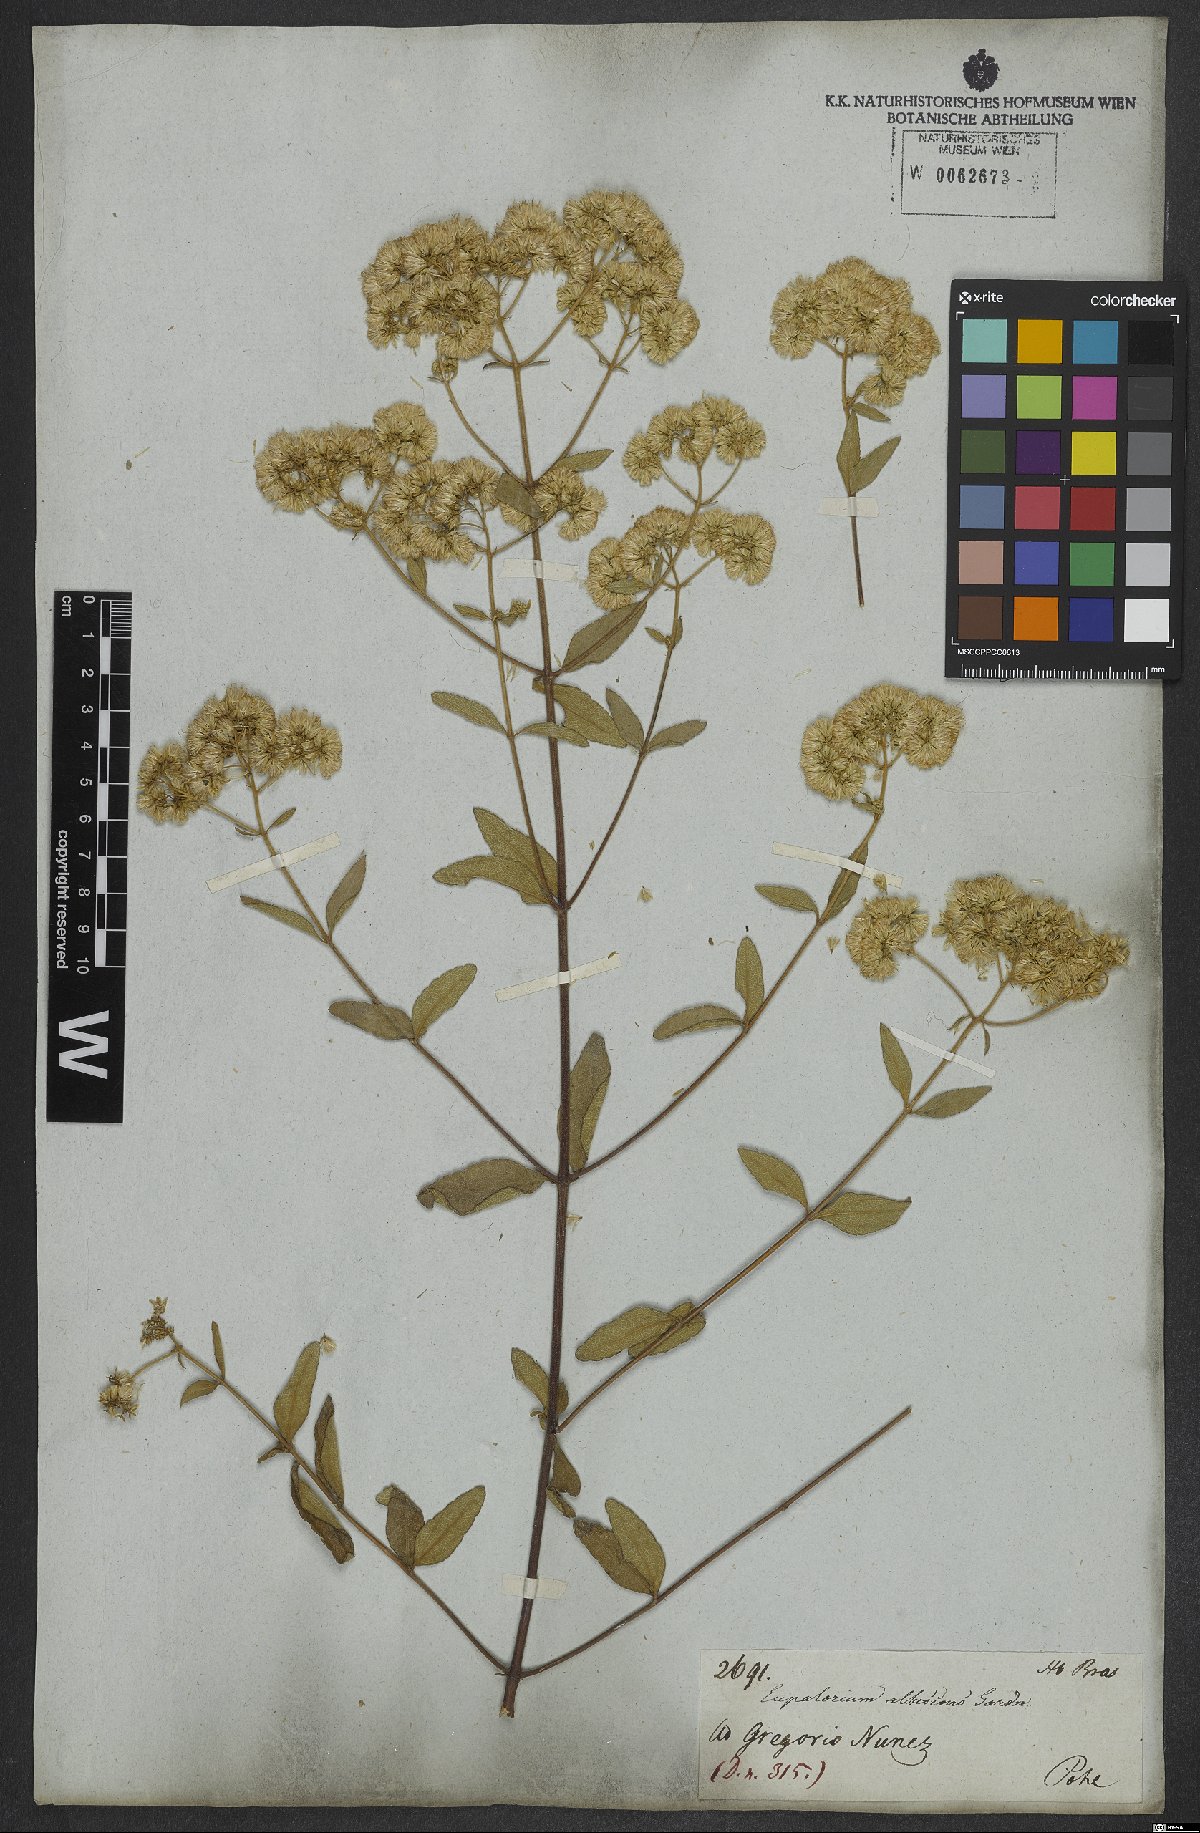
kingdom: Plantae
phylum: Tracheophyta
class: Magnoliopsida
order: Asterales
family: Asteraceae
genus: Austroeupatorium
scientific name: Austroeupatorium silphiifolium
